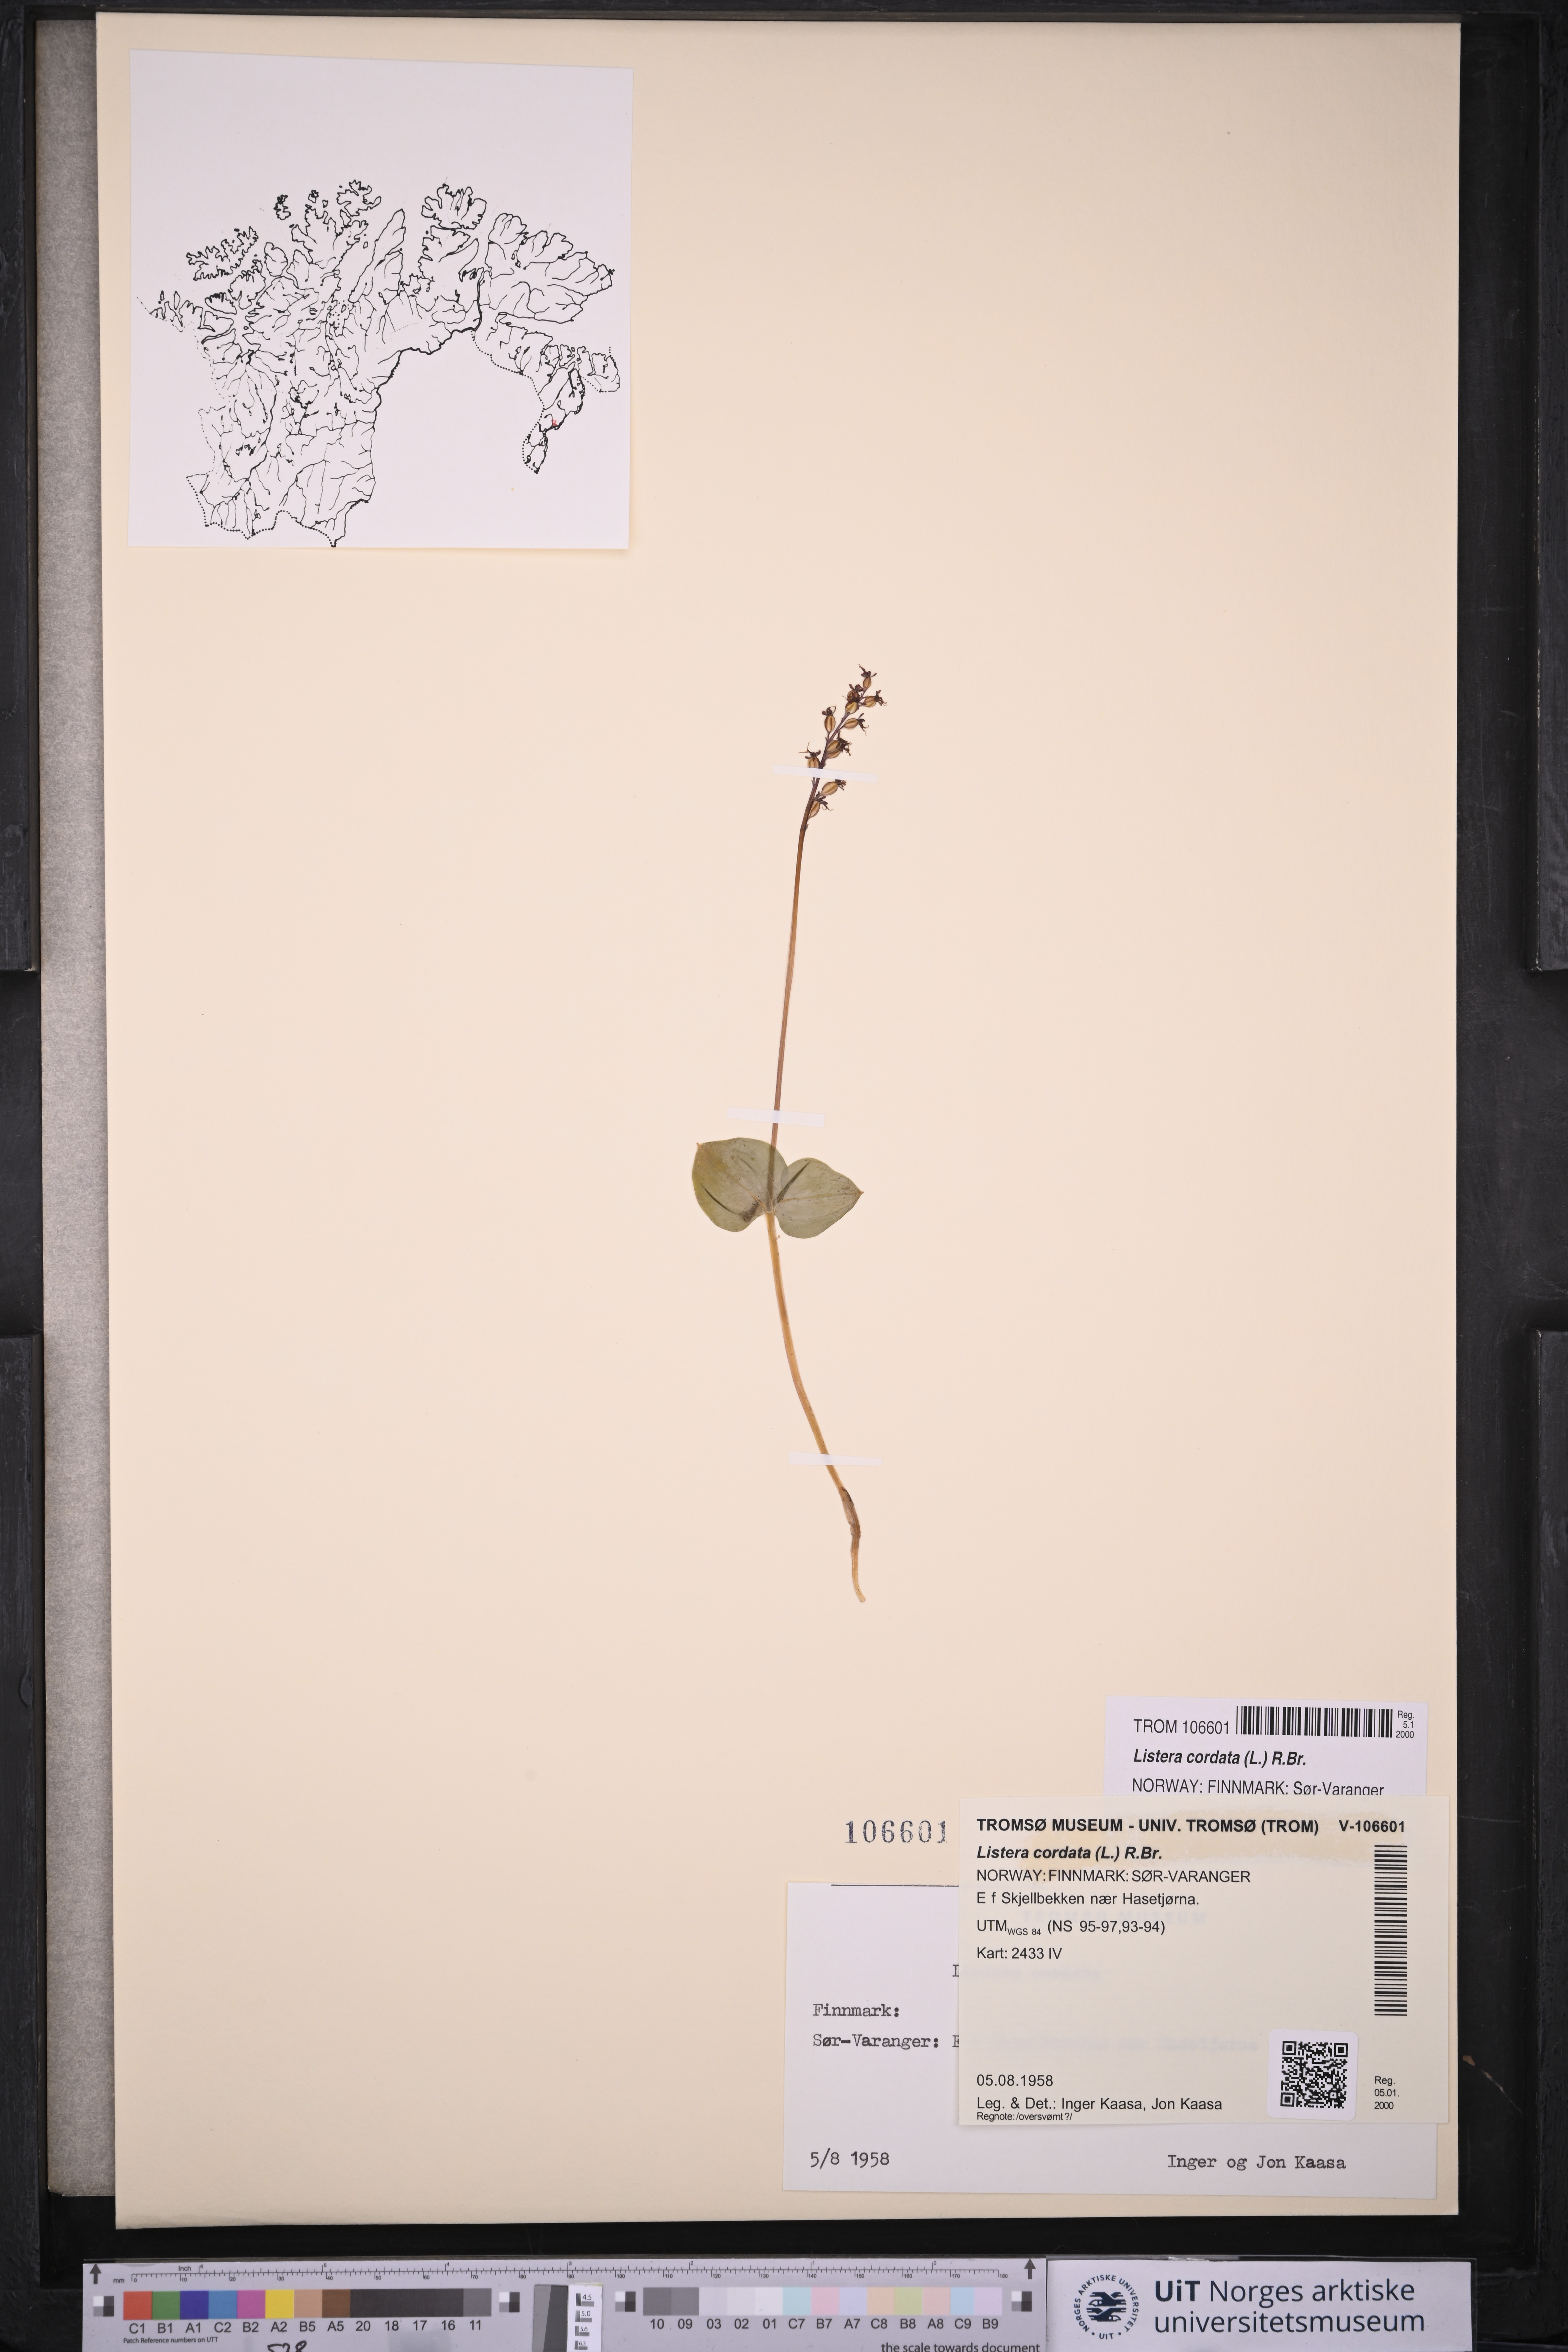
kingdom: Plantae
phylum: Tracheophyta
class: Liliopsida
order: Asparagales
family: Orchidaceae
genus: Neottia
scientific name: Neottia cordata
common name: Lesser twayblade
